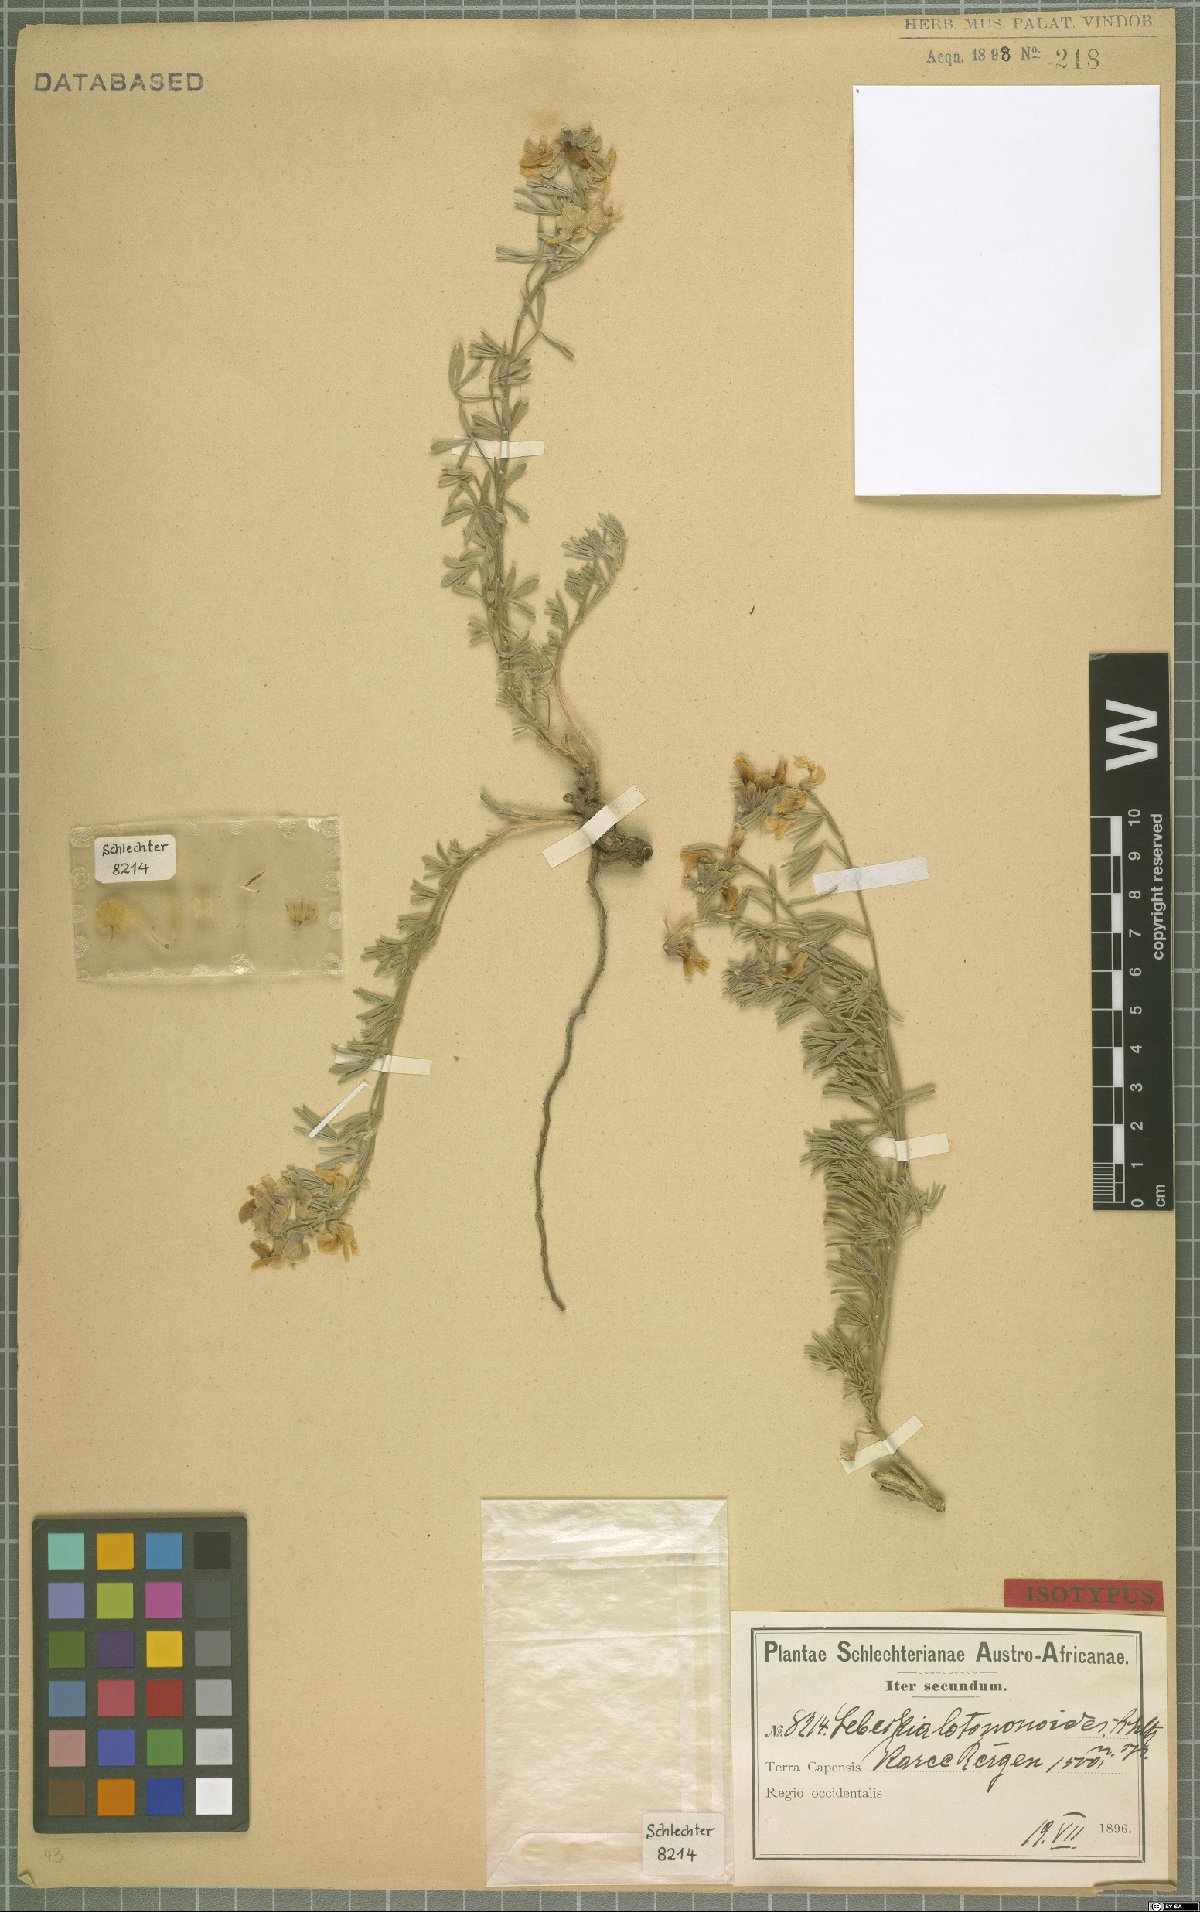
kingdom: Plantae
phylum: Tracheophyta
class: Magnoliopsida
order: Fabales
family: Fabaceae
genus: Calobota
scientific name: Calobota lotononoides
